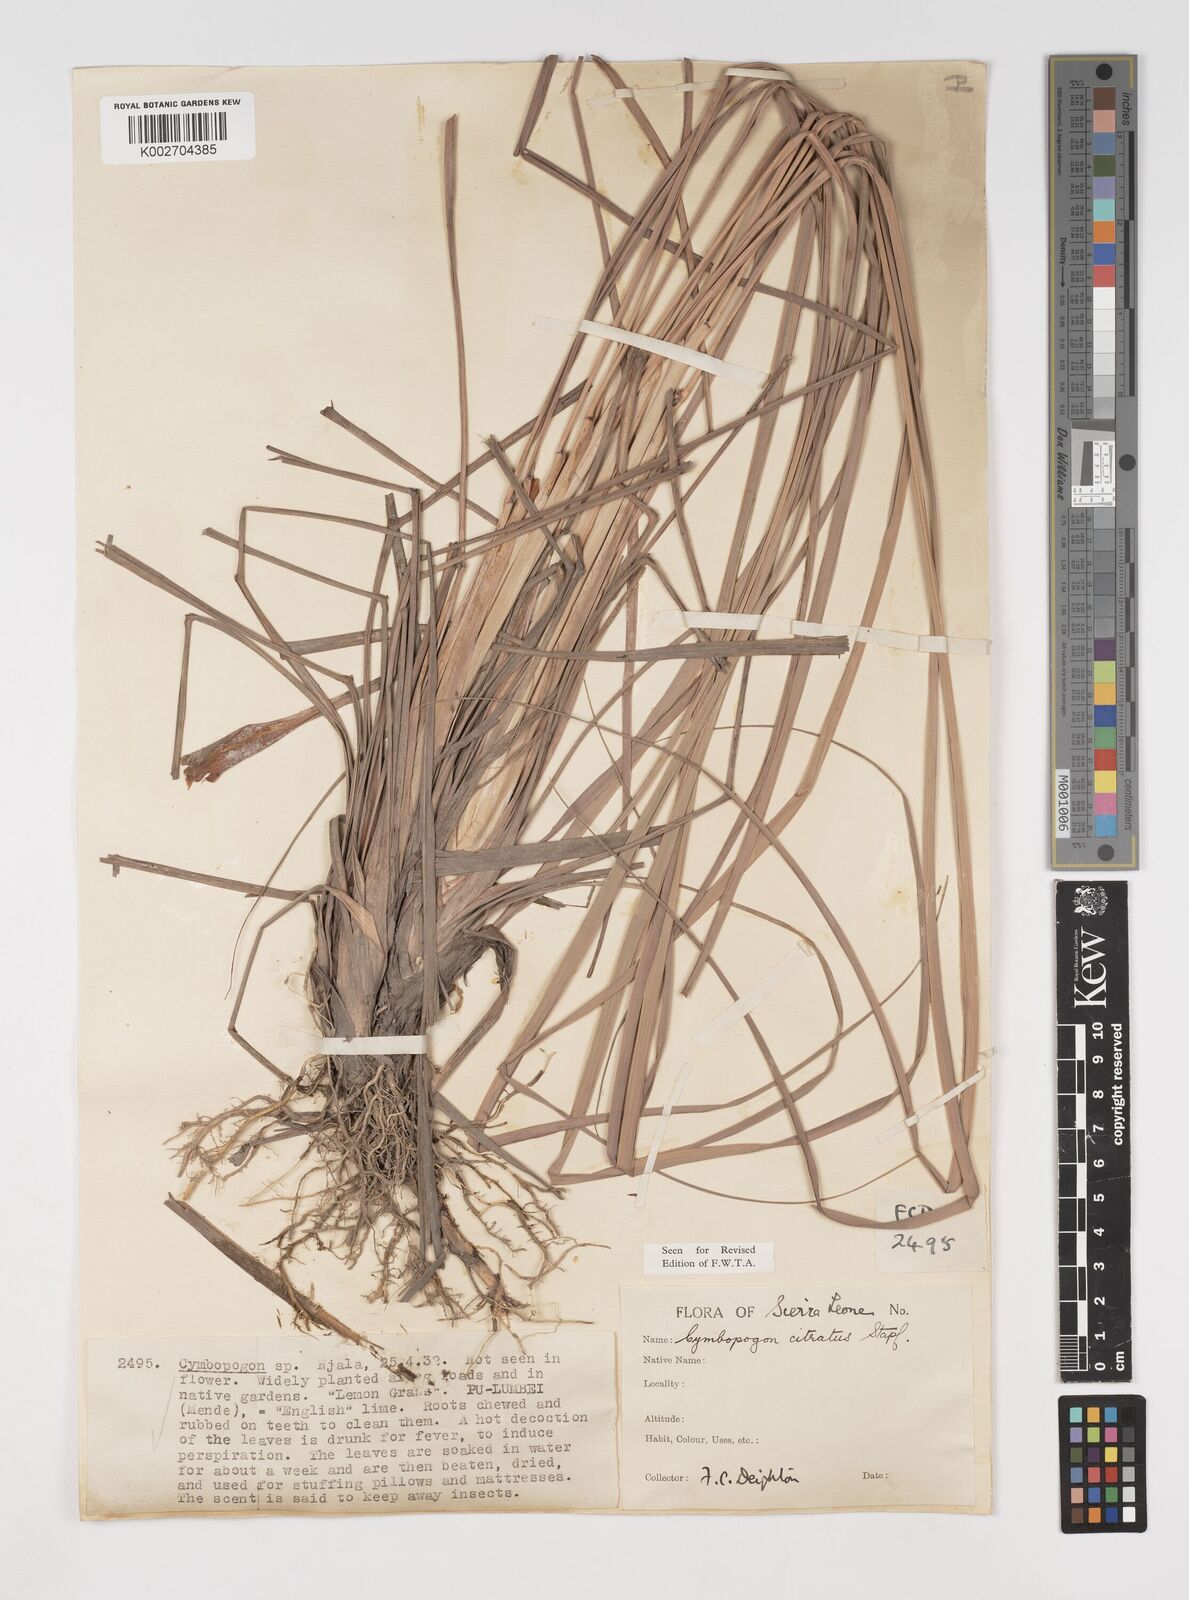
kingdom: Plantae
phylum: Tracheophyta
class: Liliopsida
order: Poales
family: Poaceae
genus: Cymbopogon
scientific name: Cymbopogon citratus
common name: Lemon grass
